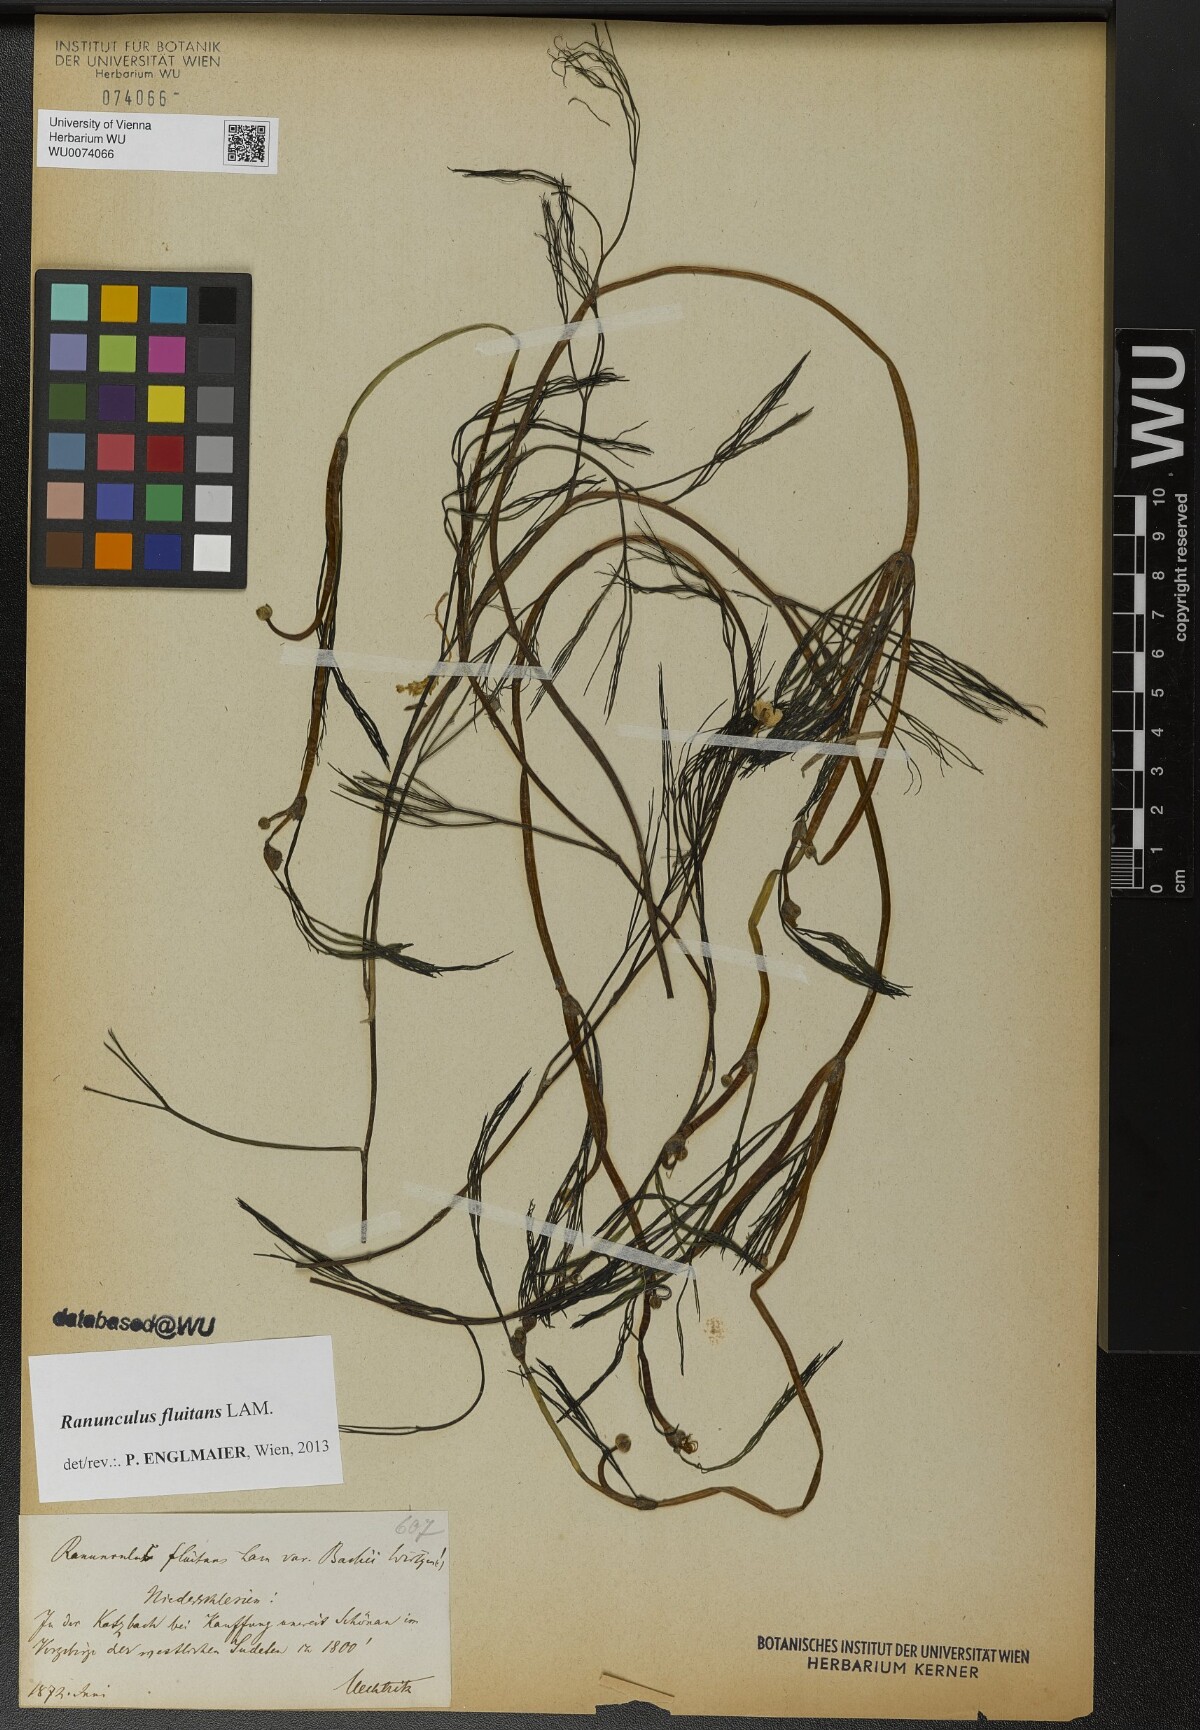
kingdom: Plantae
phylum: Tracheophyta
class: Magnoliopsida
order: Ranunculales
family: Ranunculaceae
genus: Ranunculus
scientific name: Ranunculus fluitans
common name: River water-crowfoot
